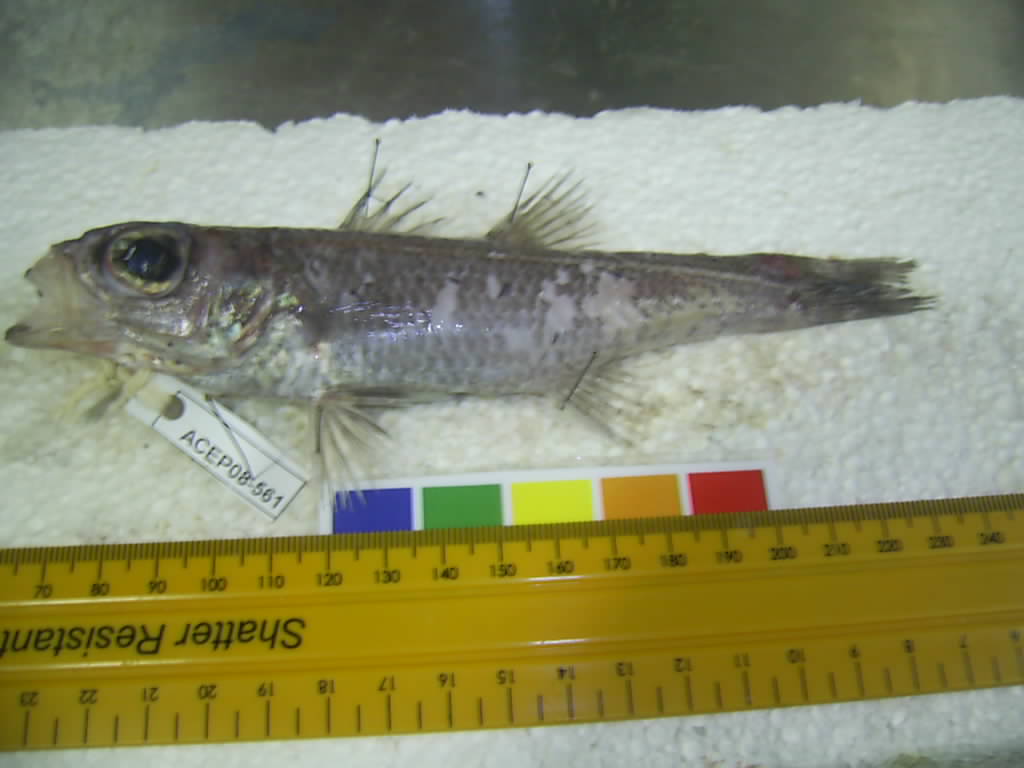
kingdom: Animalia
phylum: Chordata
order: Perciformes
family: Epigonidae
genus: Epigonus
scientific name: Epigonus pectinifer
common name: Combgill deepwater cardinalfish
